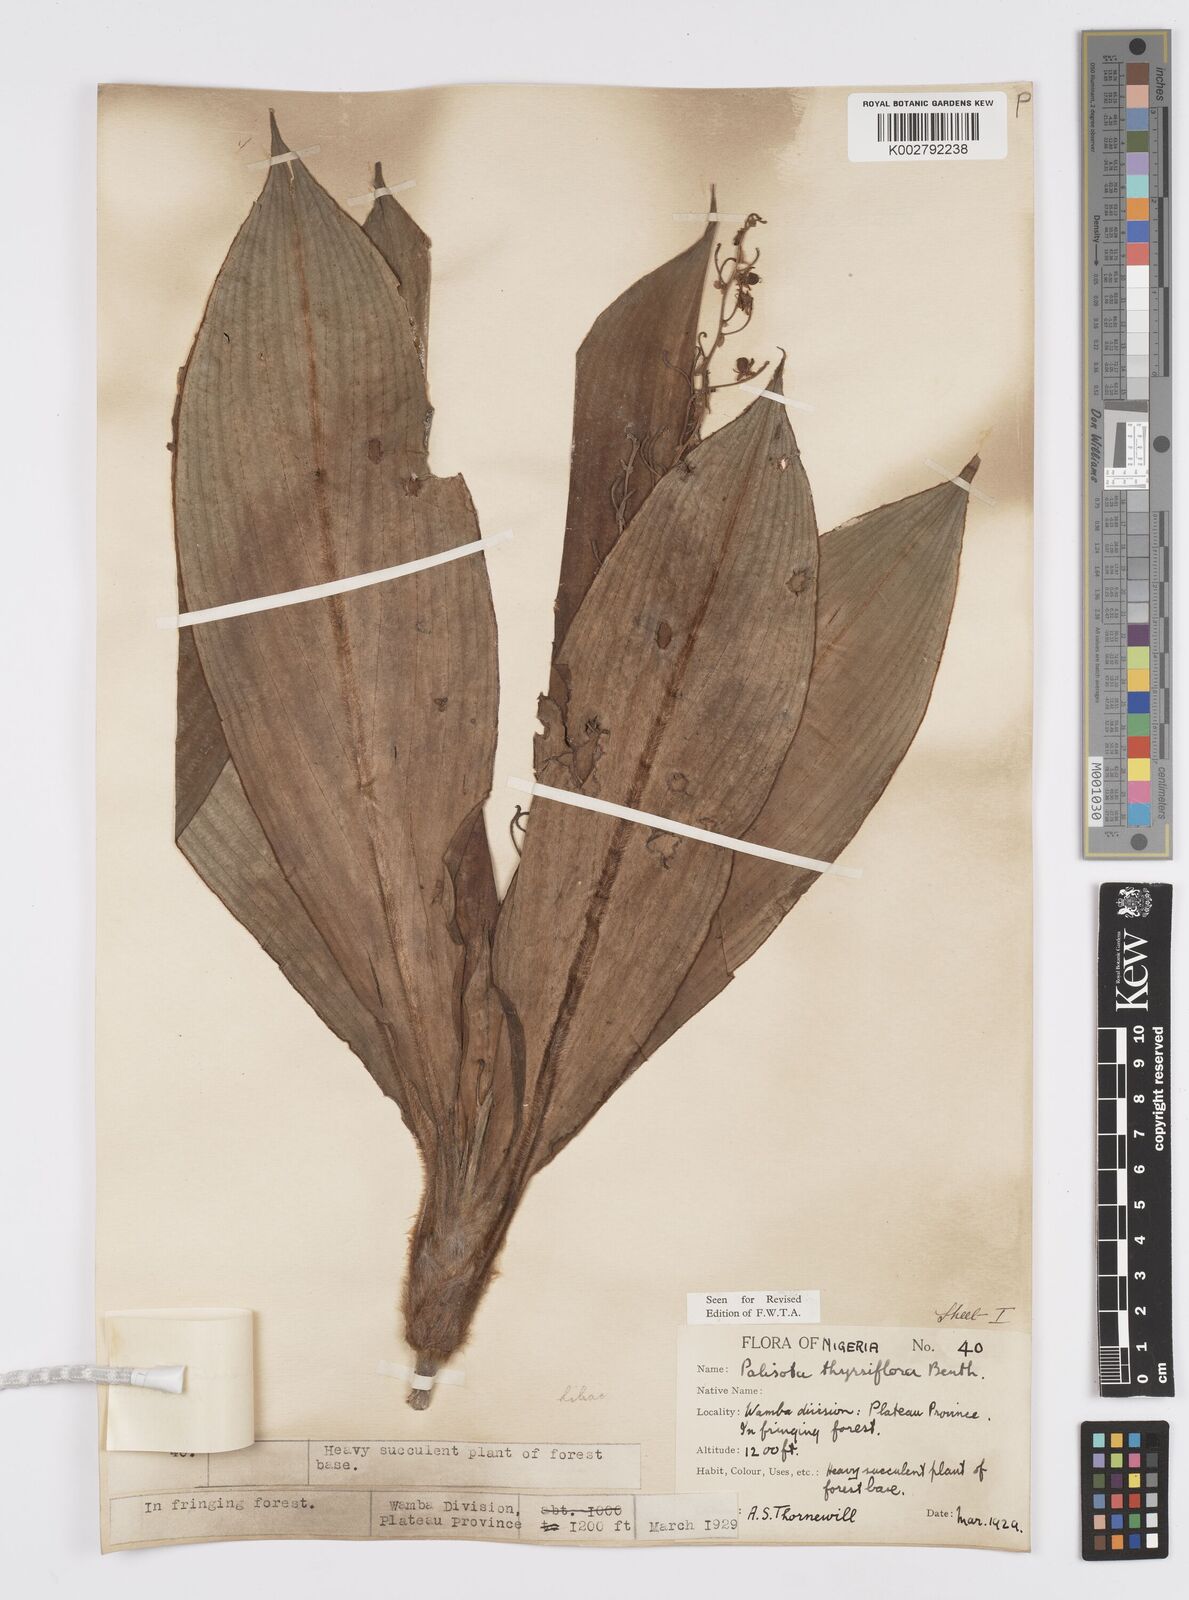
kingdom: Plantae
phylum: Tracheophyta
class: Liliopsida
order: Commelinales
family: Commelinaceae
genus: Palisota
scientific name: Palisota hirsuta
